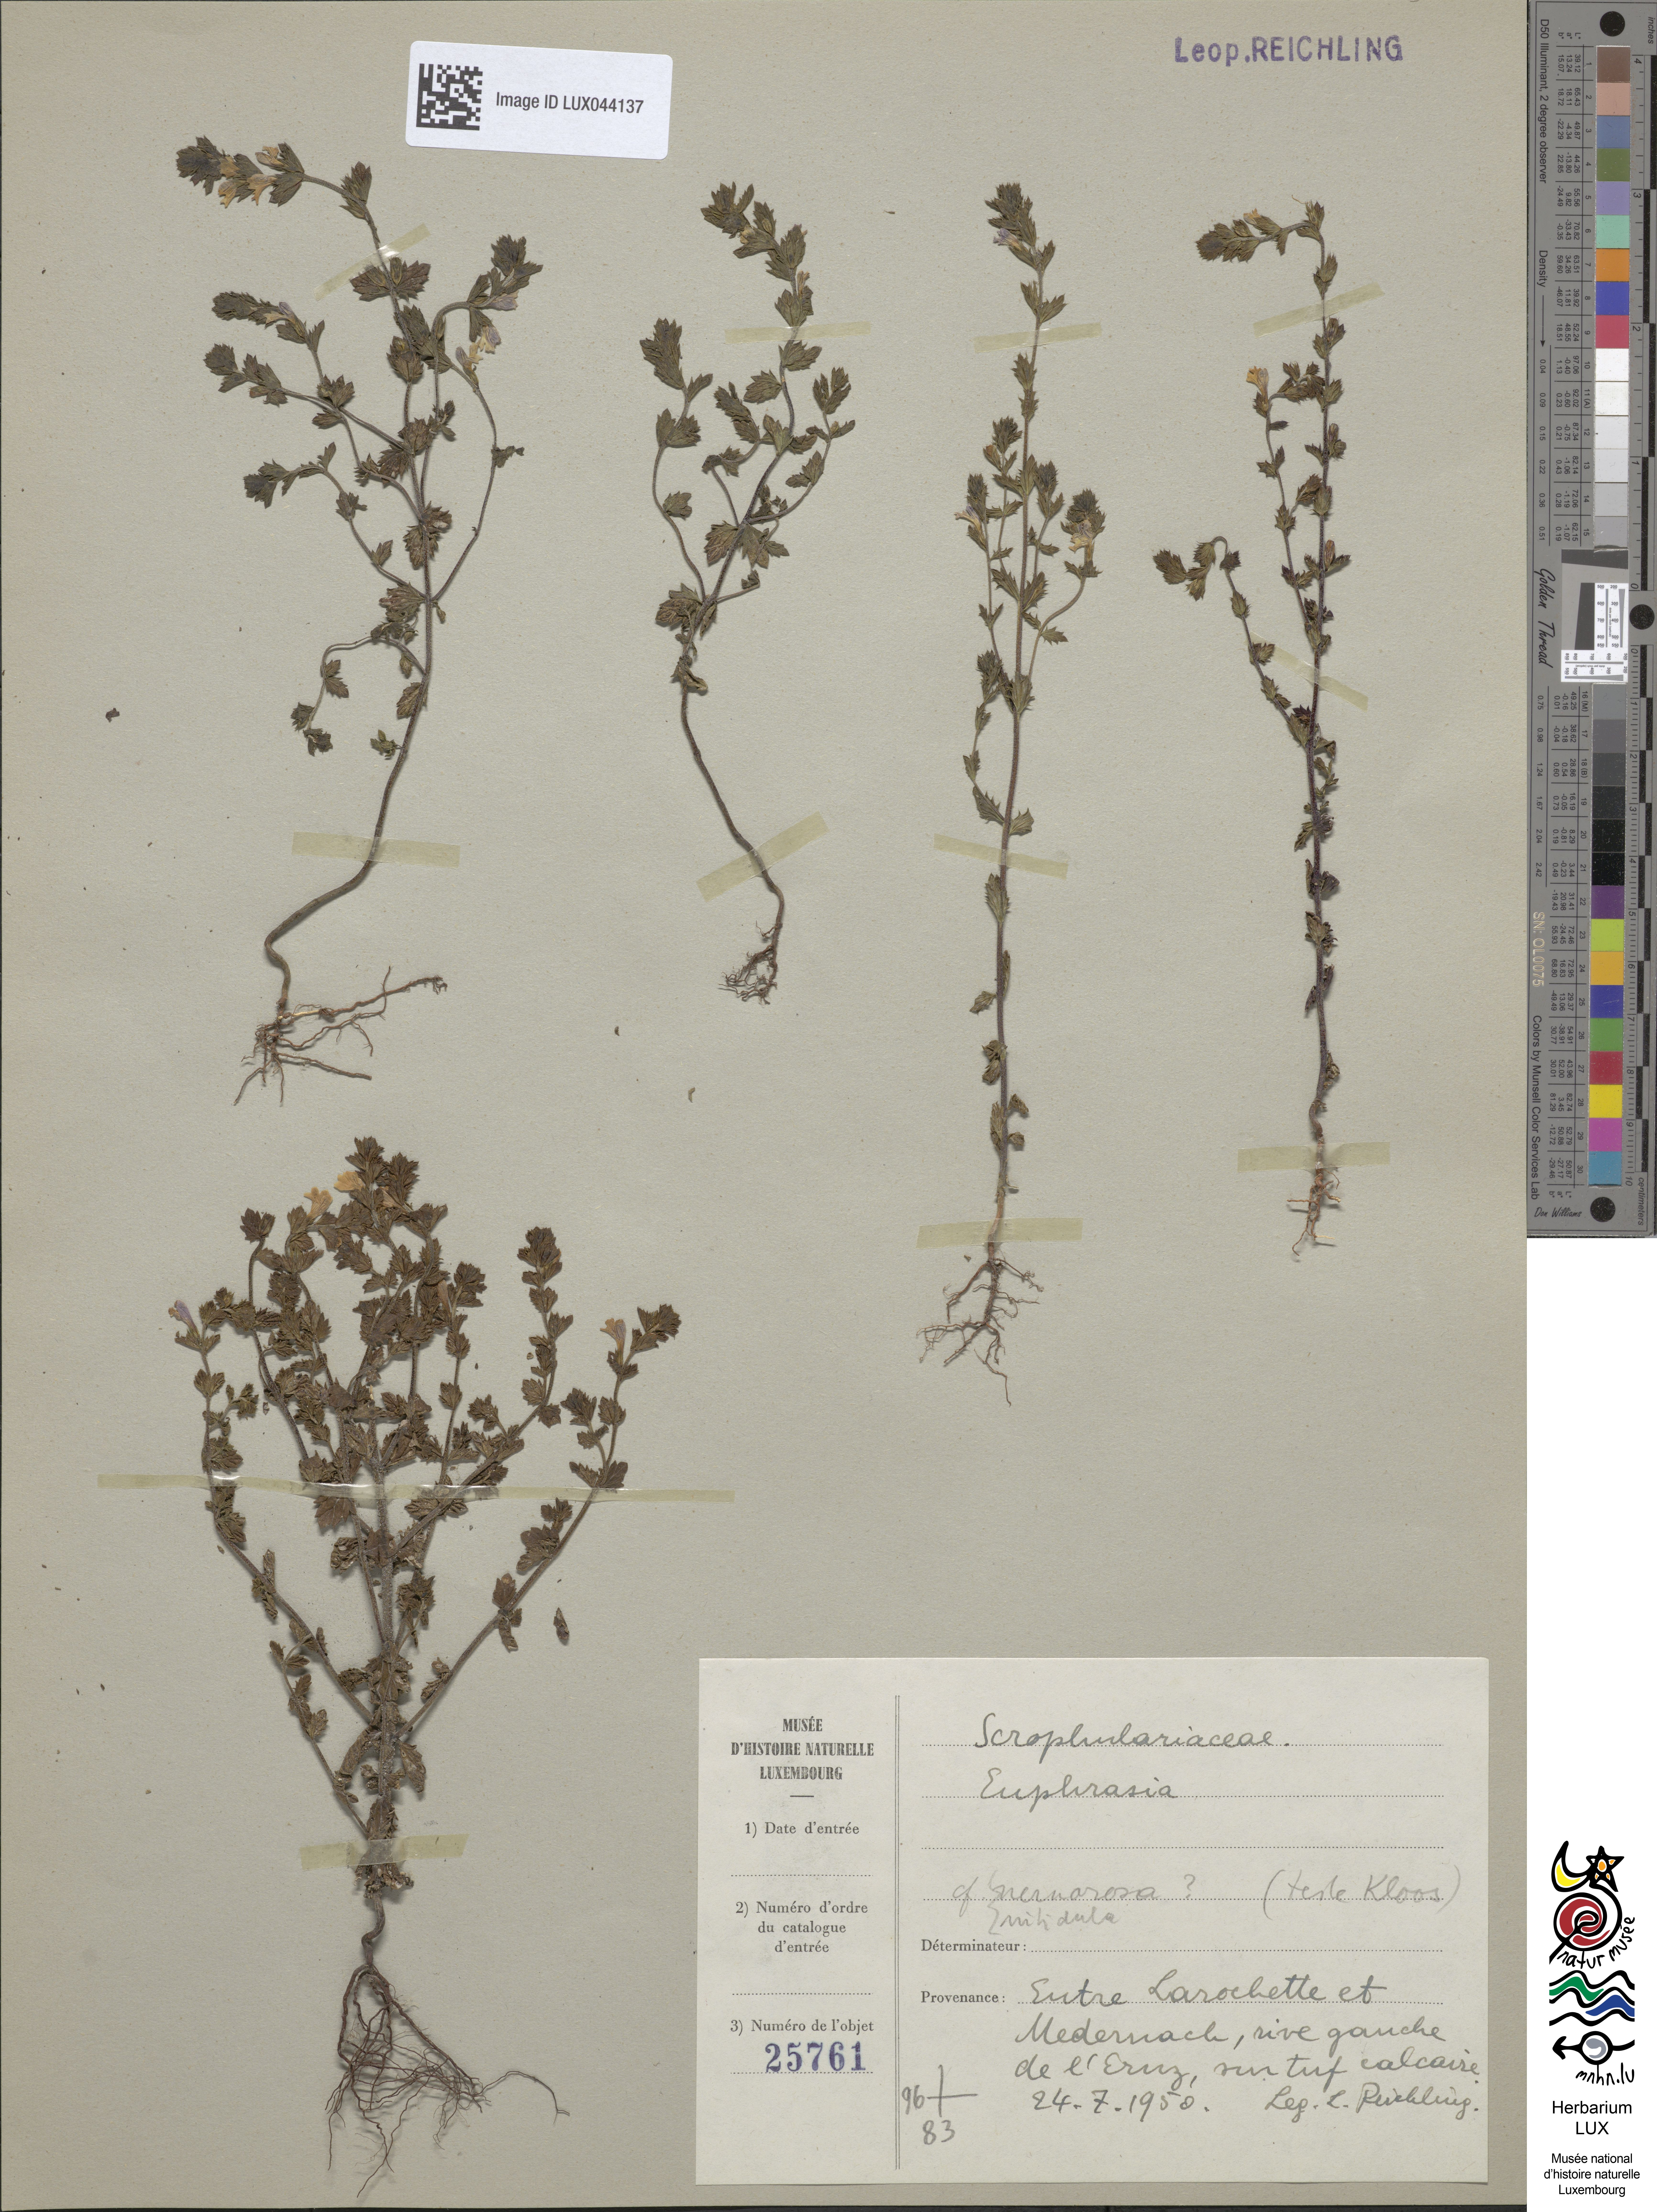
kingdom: Plantae
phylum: Tracheophyta
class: Magnoliopsida
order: Lamiales
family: Orobanchaceae
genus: Euphrasia
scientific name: Euphrasia nemorosa
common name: Common eyebright
